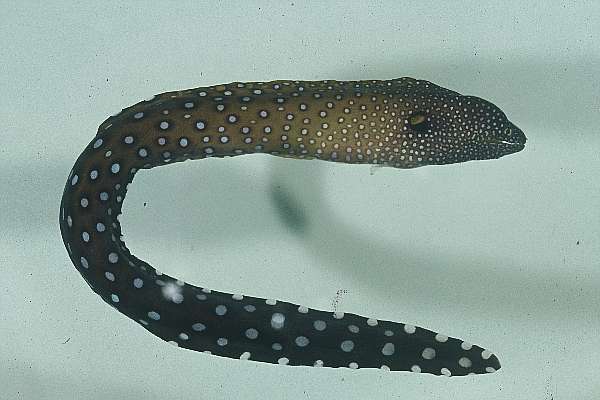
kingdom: Animalia
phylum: Chordata
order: Anguilliformes
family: Muraenidae
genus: Gymnothorax
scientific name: Gymnothorax nudivomer
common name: Yellowmouth moray
